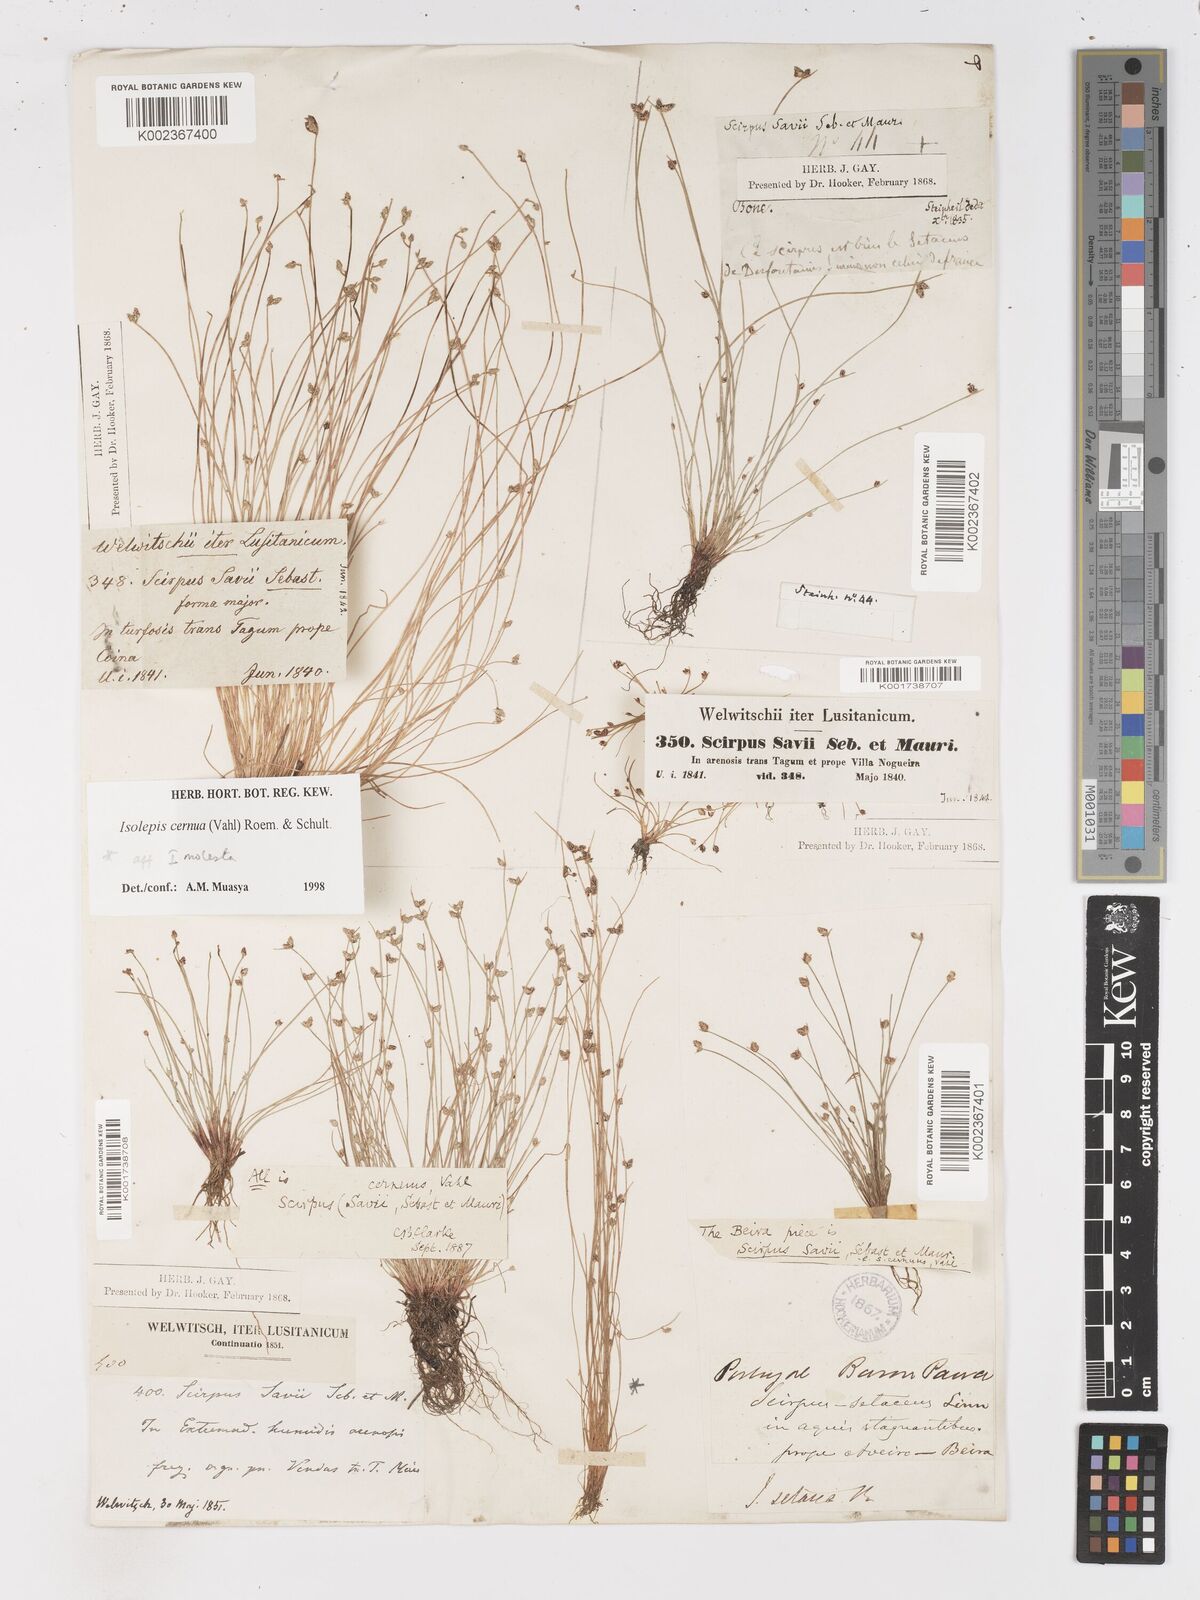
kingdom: Plantae
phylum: Tracheophyta
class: Liliopsida
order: Poales
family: Cyperaceae
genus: Isolepis
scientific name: Isolepis cernua
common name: Slender club-rush
